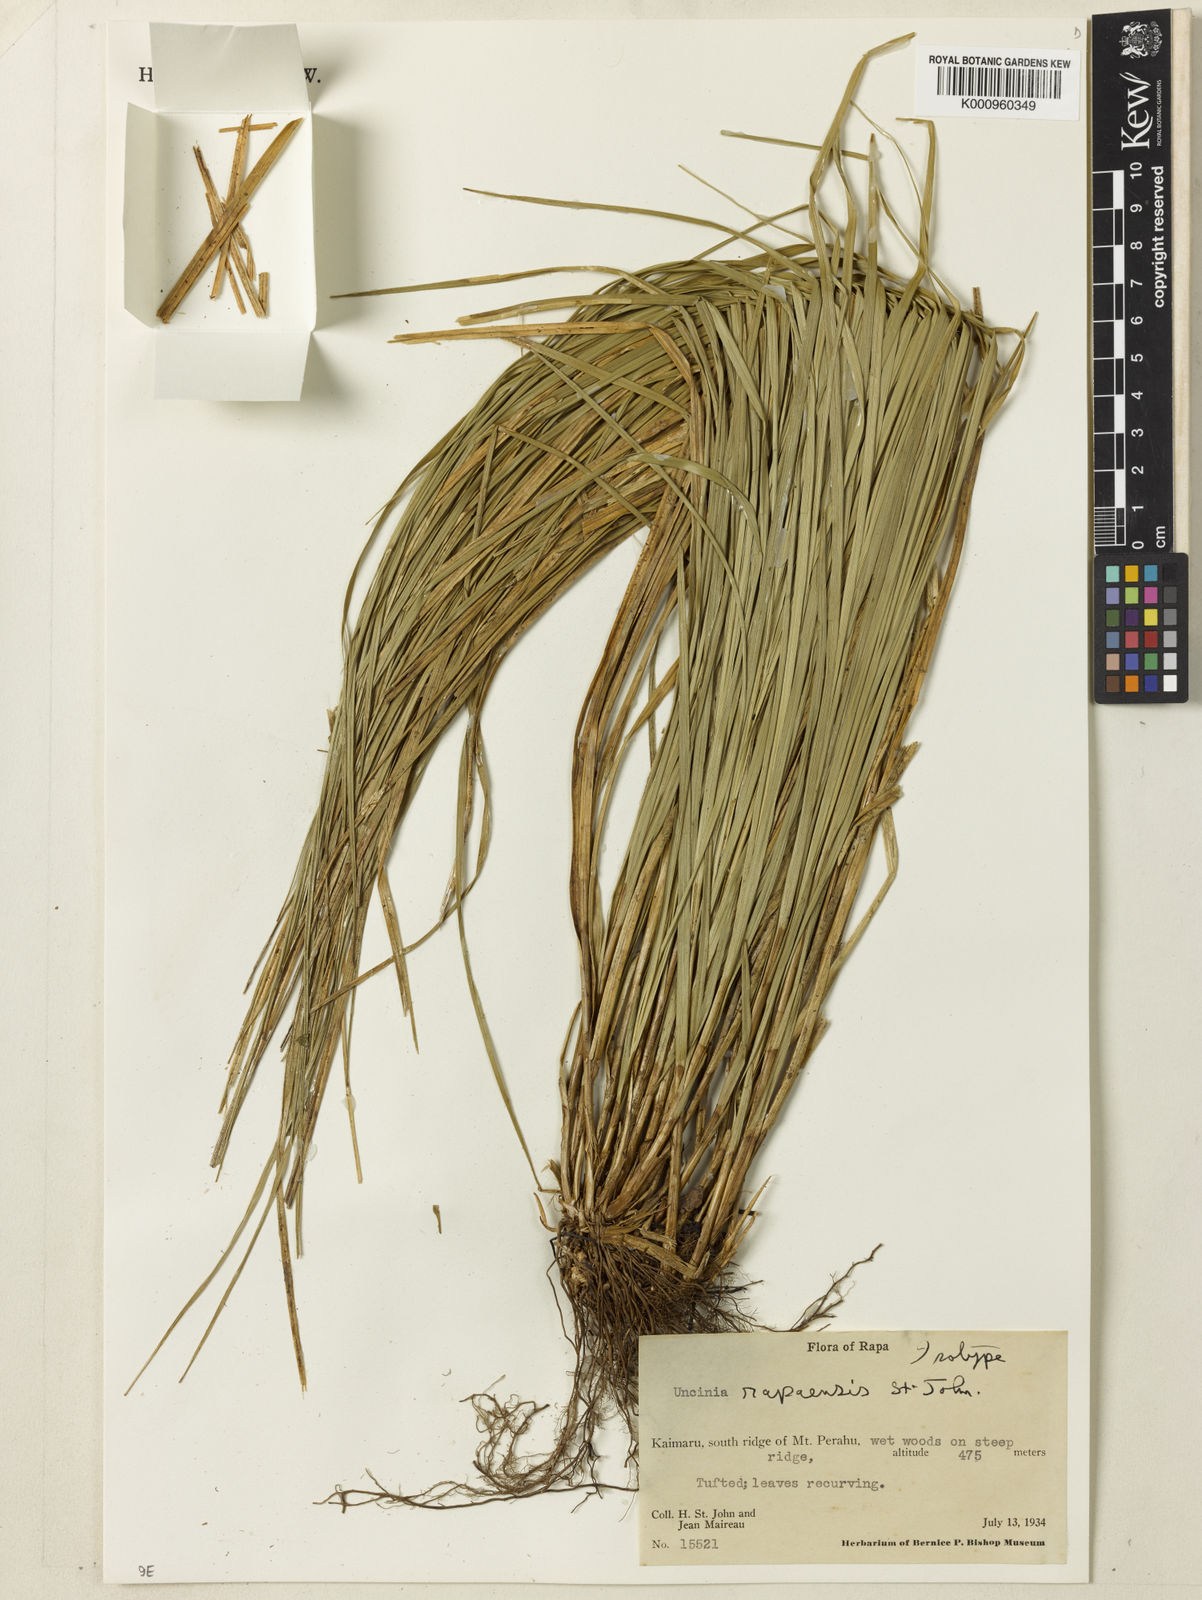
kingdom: Plantae
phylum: Tracheophyta
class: Liliopsida
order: Poales
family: Cyperaceae
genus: Carex
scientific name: Carex rapaensis
